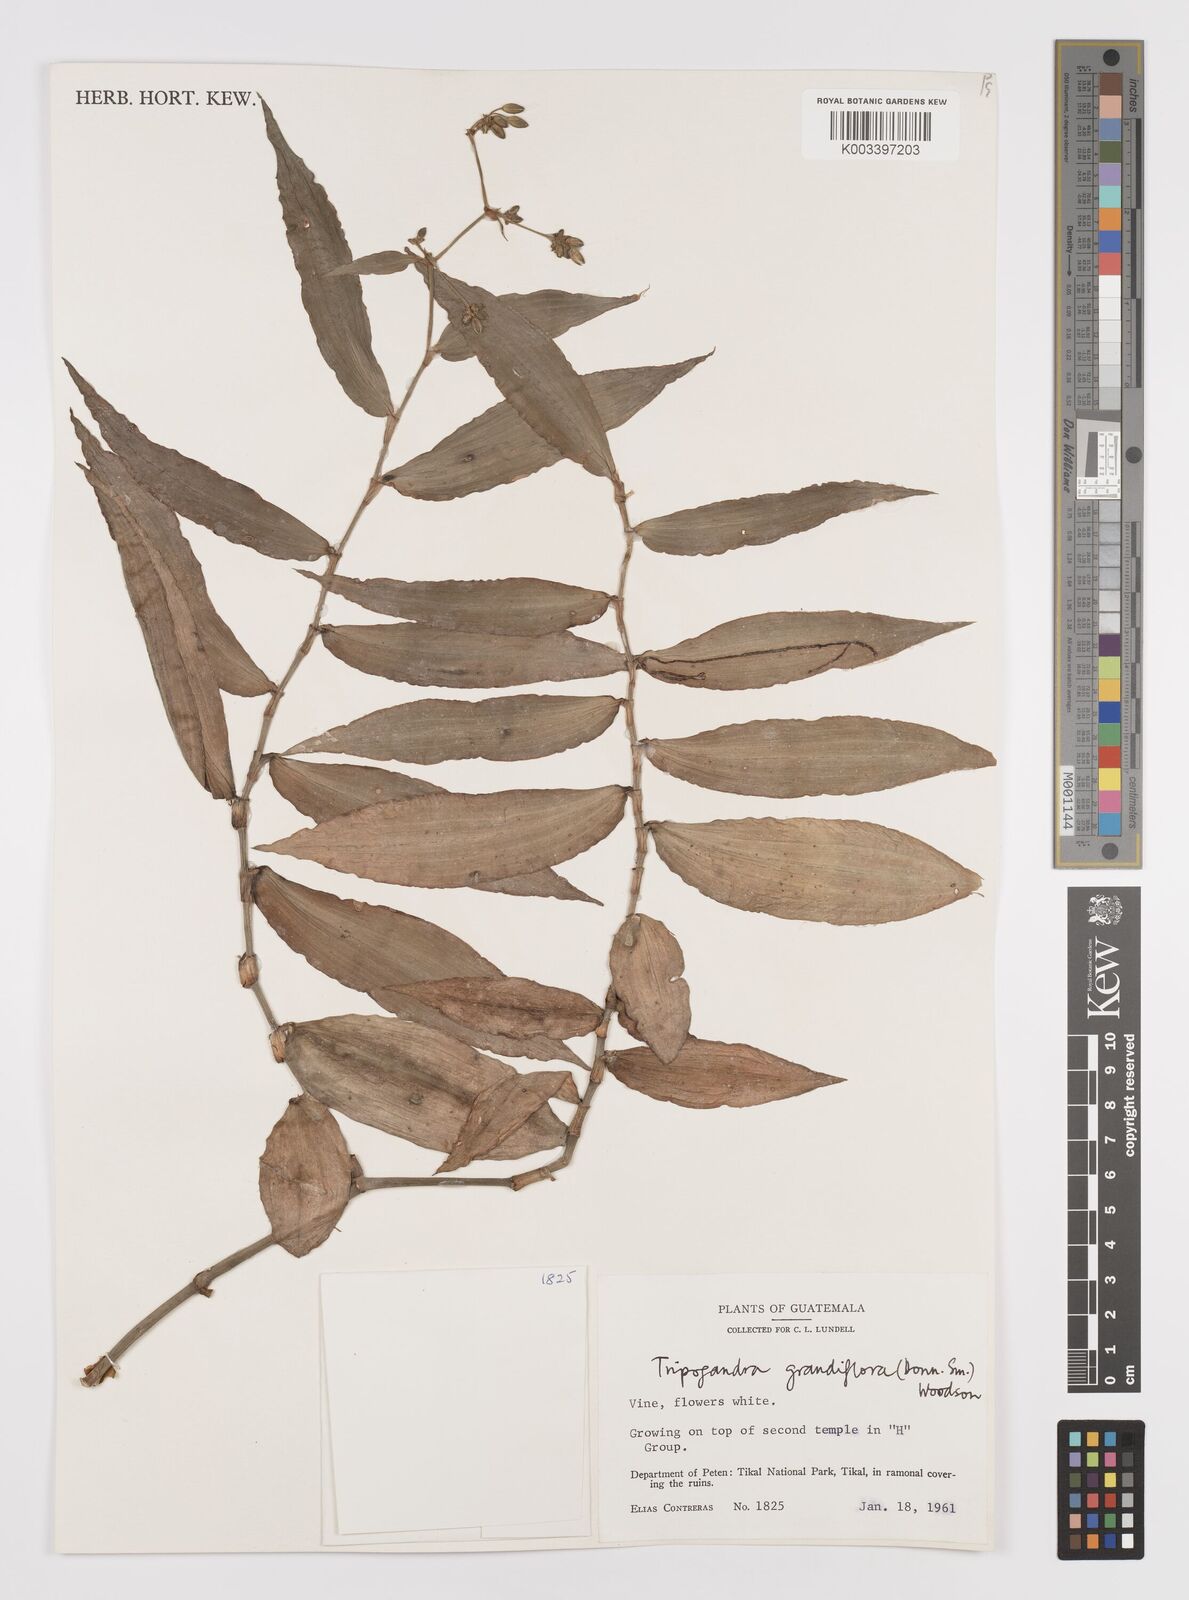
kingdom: Plantae
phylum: Tracheophyta
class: Liliopsida
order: Commelinales
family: Commelinaceae
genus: Callisia
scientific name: Callisia grandiflora
